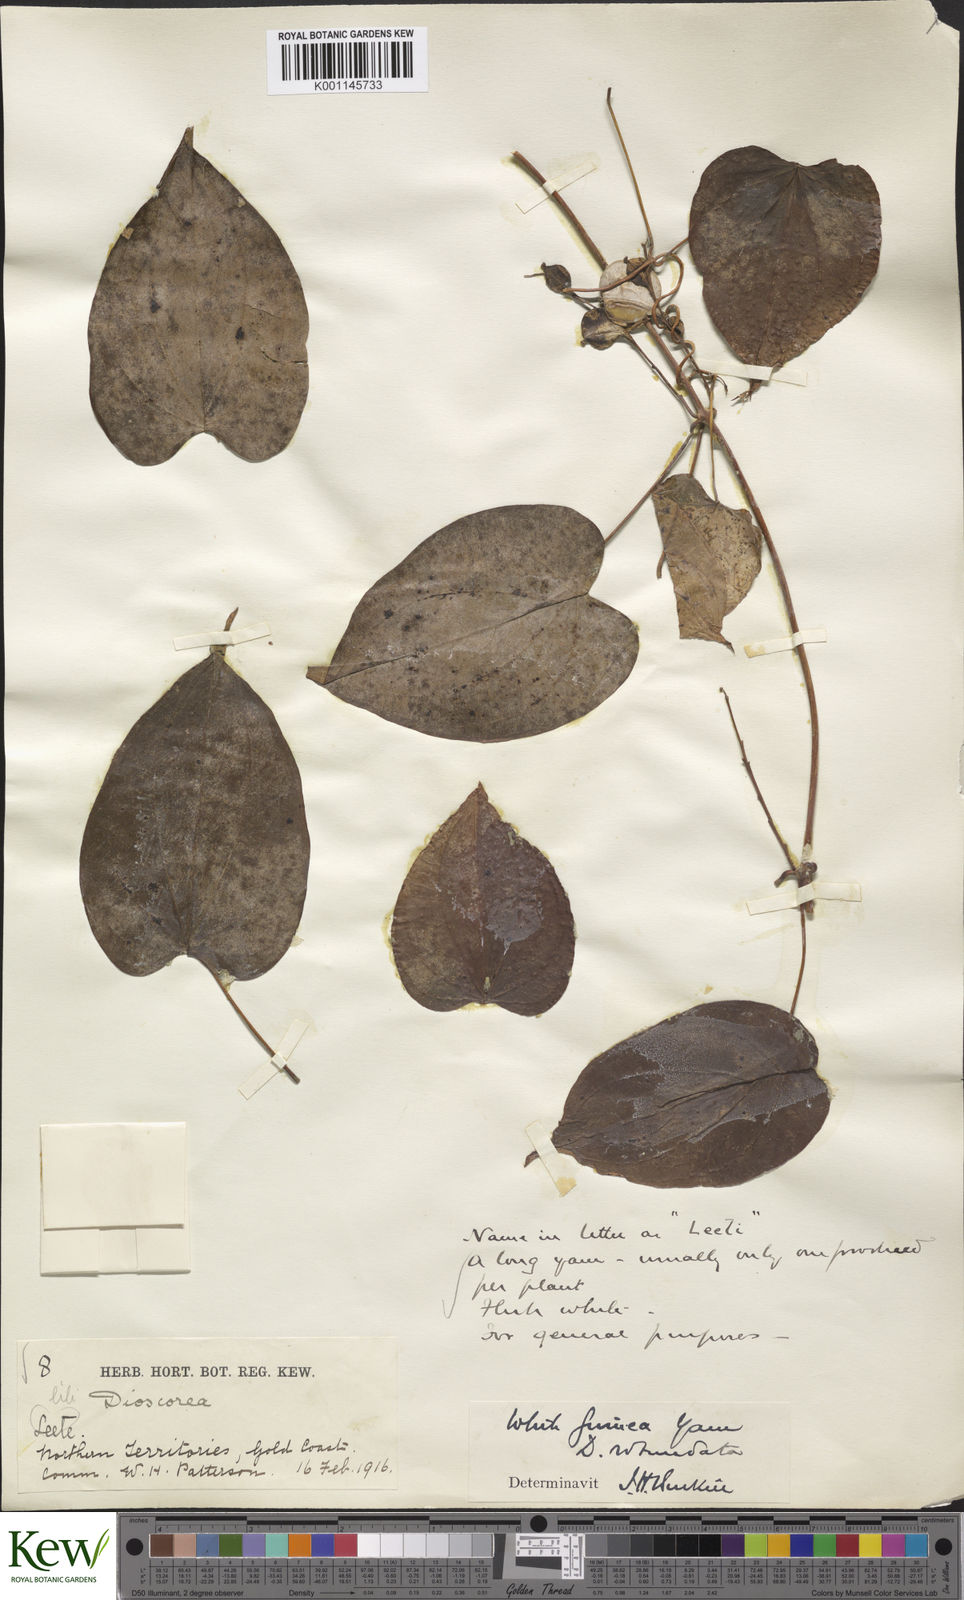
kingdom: Plantae
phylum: Tracheophyta
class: Liliopsida
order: Dioscoreales
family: Dioscoreaceae
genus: Dioscorea
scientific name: Dioscorea cayenensis
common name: Attoto yam
